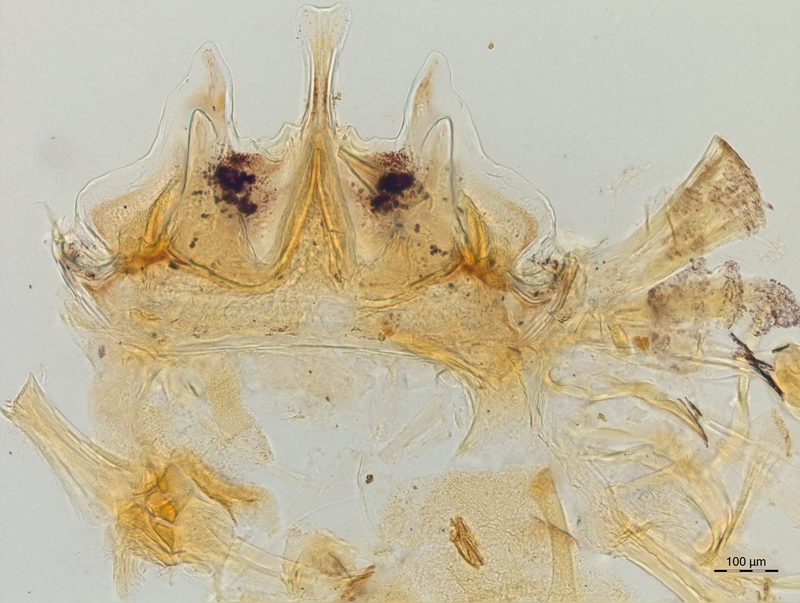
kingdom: Animalia
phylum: Arthropoda
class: Diplopoda
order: Chordeumatida
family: Craspedosomatidae
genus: Craspedosoma
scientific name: Craspedosoma rawlinsii
